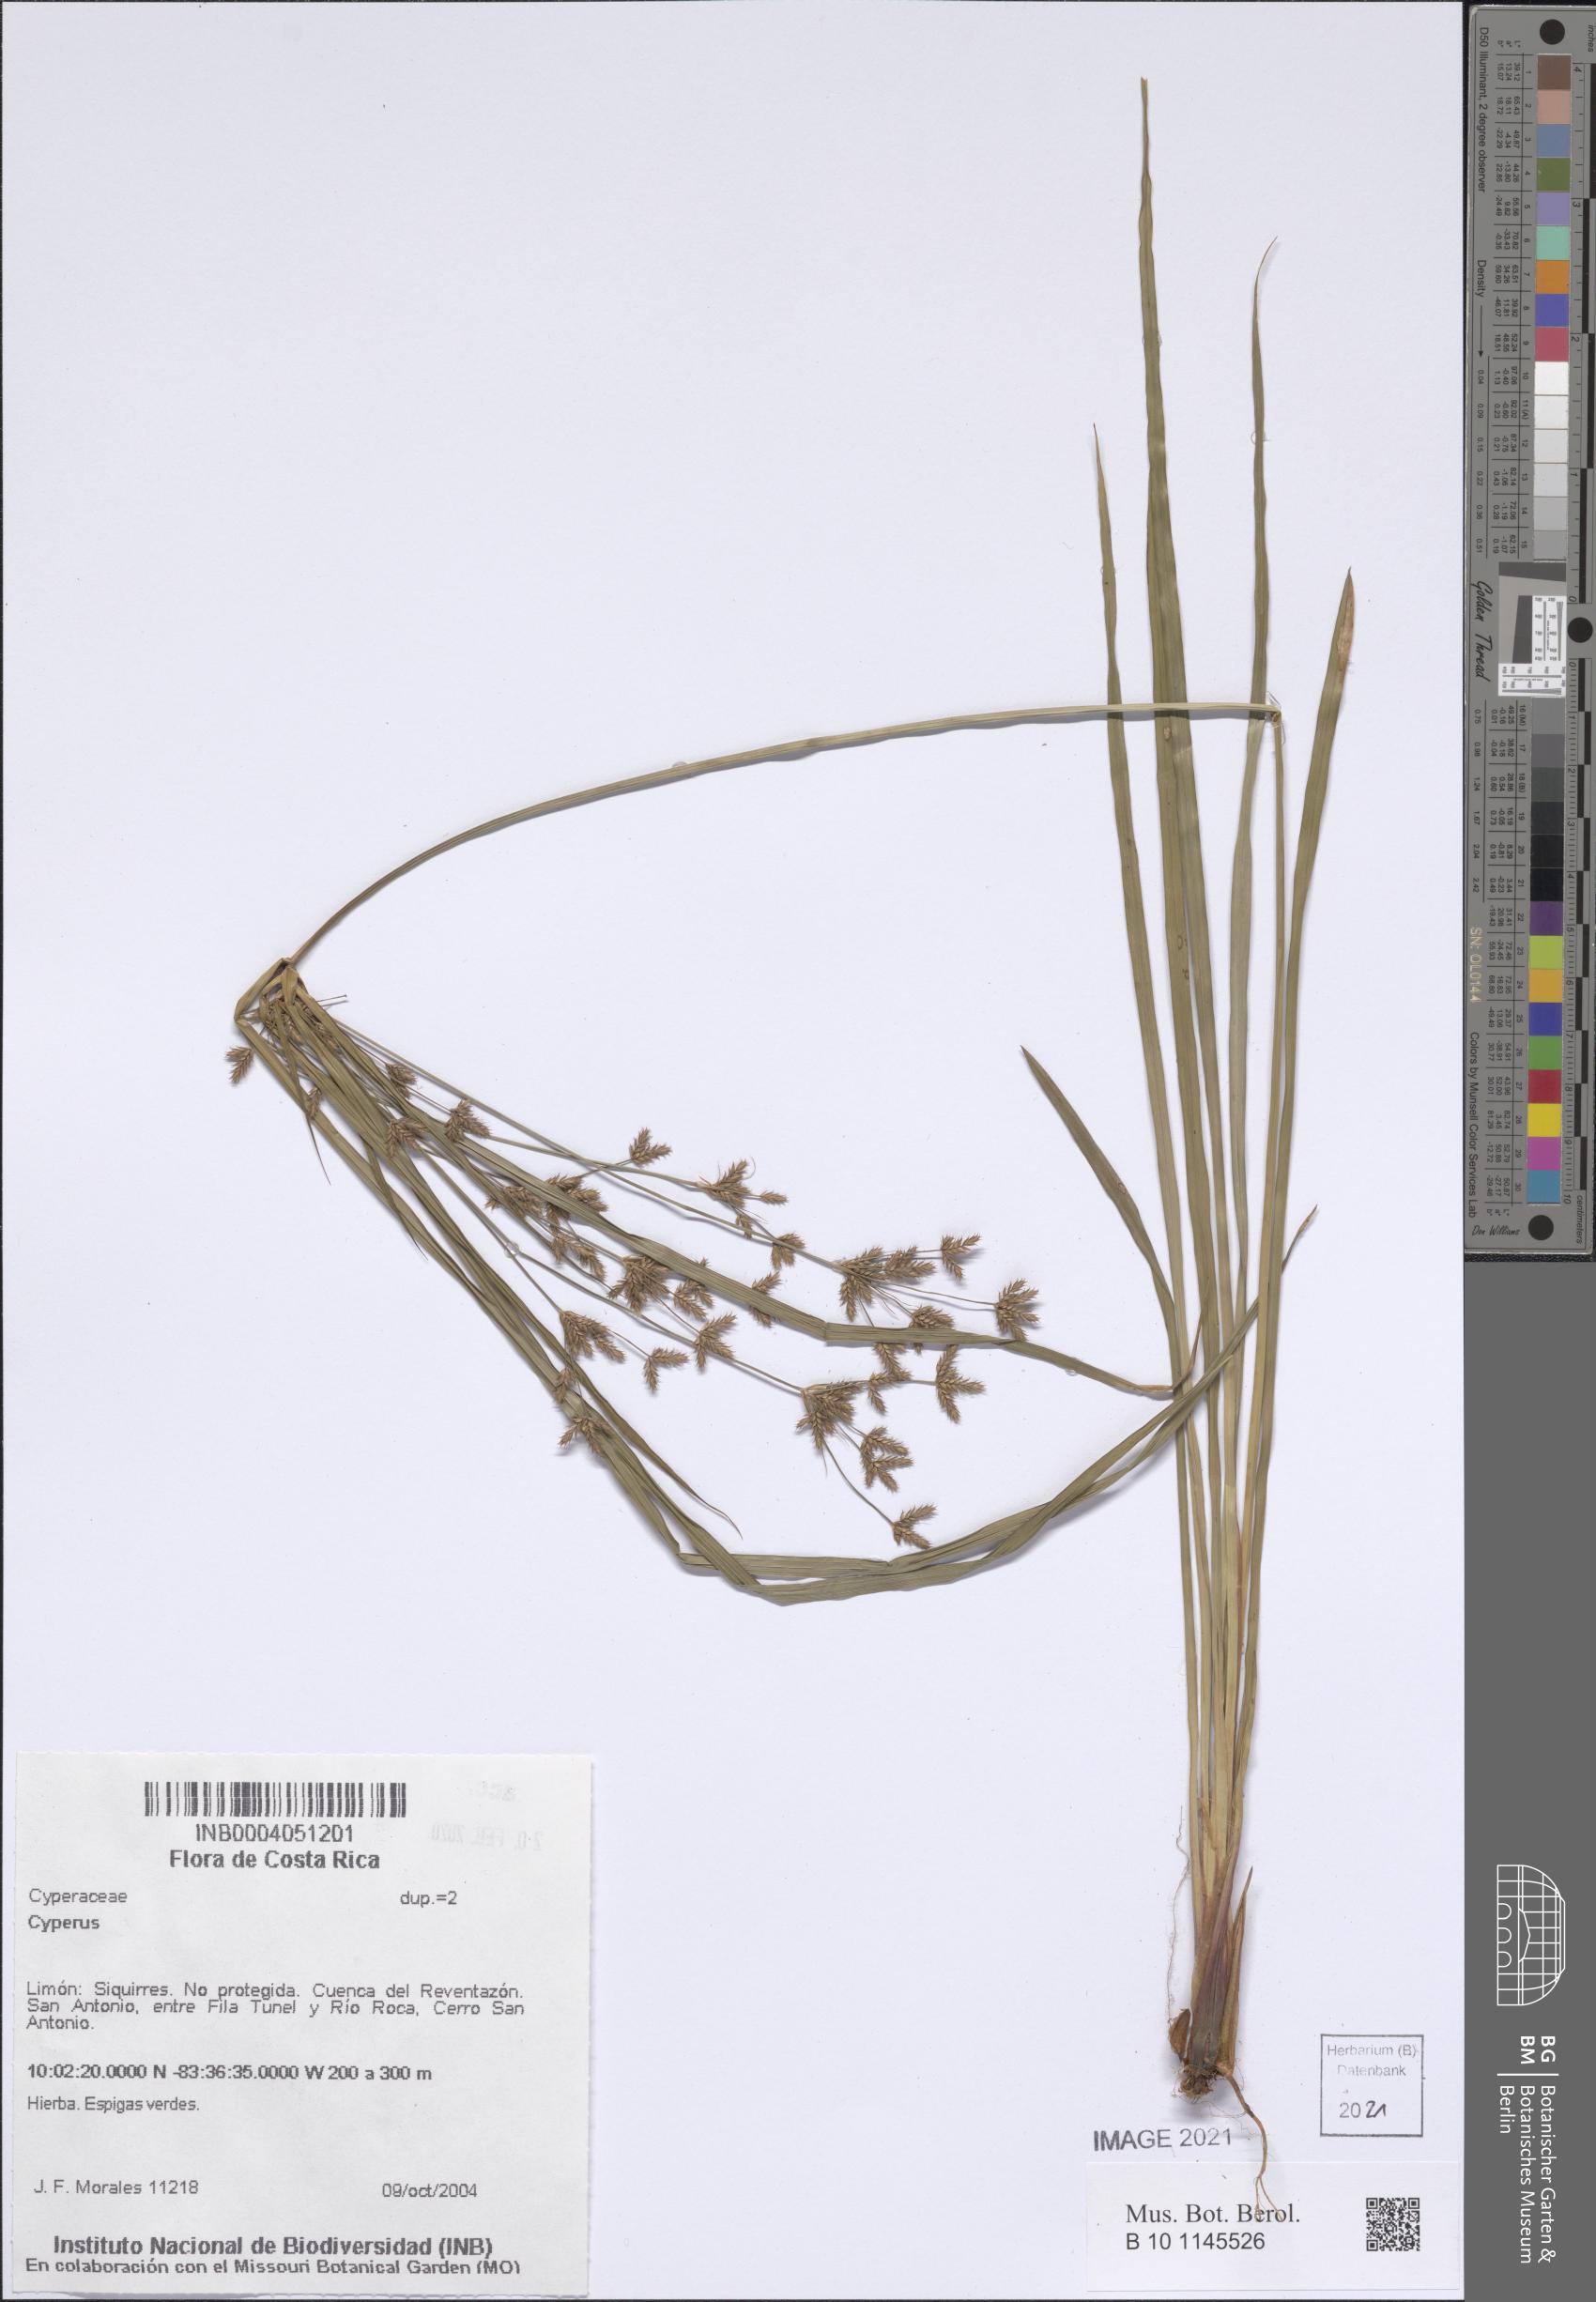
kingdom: Plantae
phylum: Tracheophyta
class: Liliopsida
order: Poales
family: Cyperaceae
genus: Cyperus
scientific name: Cyperus
